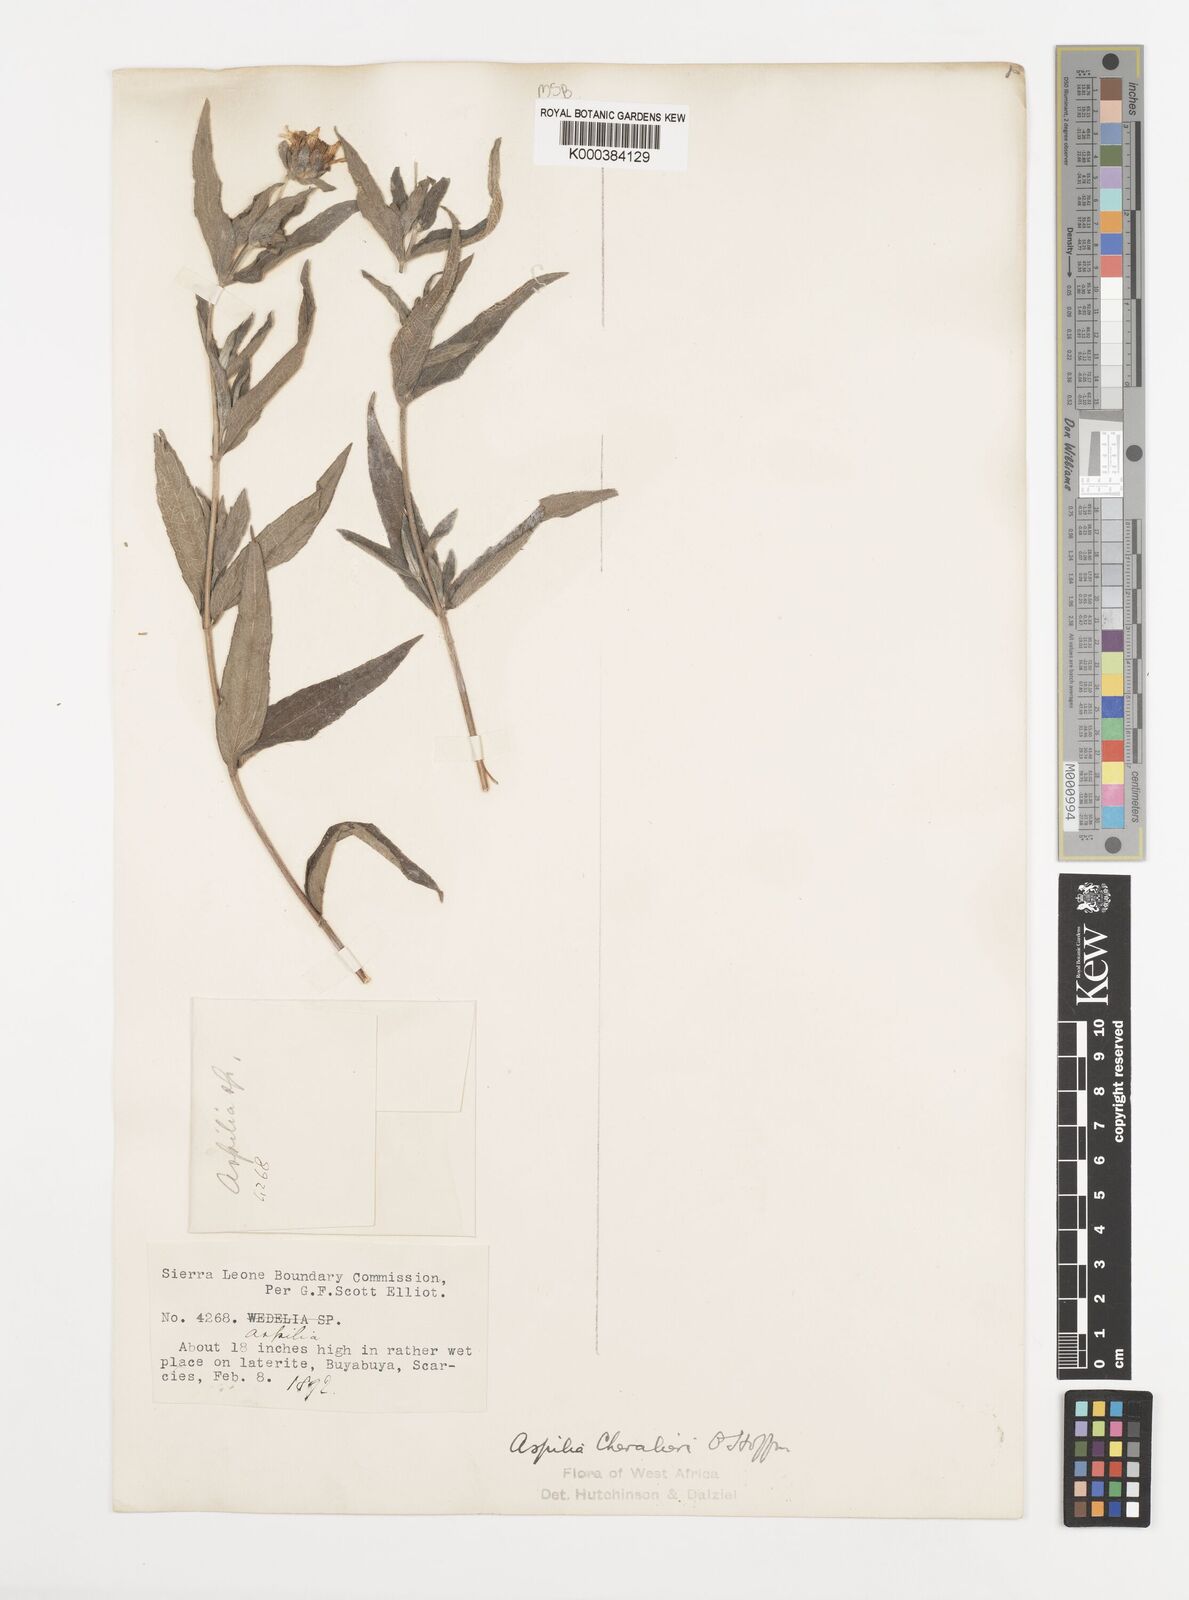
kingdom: Plantae
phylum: Tracheophyta
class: Magnoliopsida
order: Asterales
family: Asteraceae
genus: Aspilia
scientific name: Aspilia chevalieri
